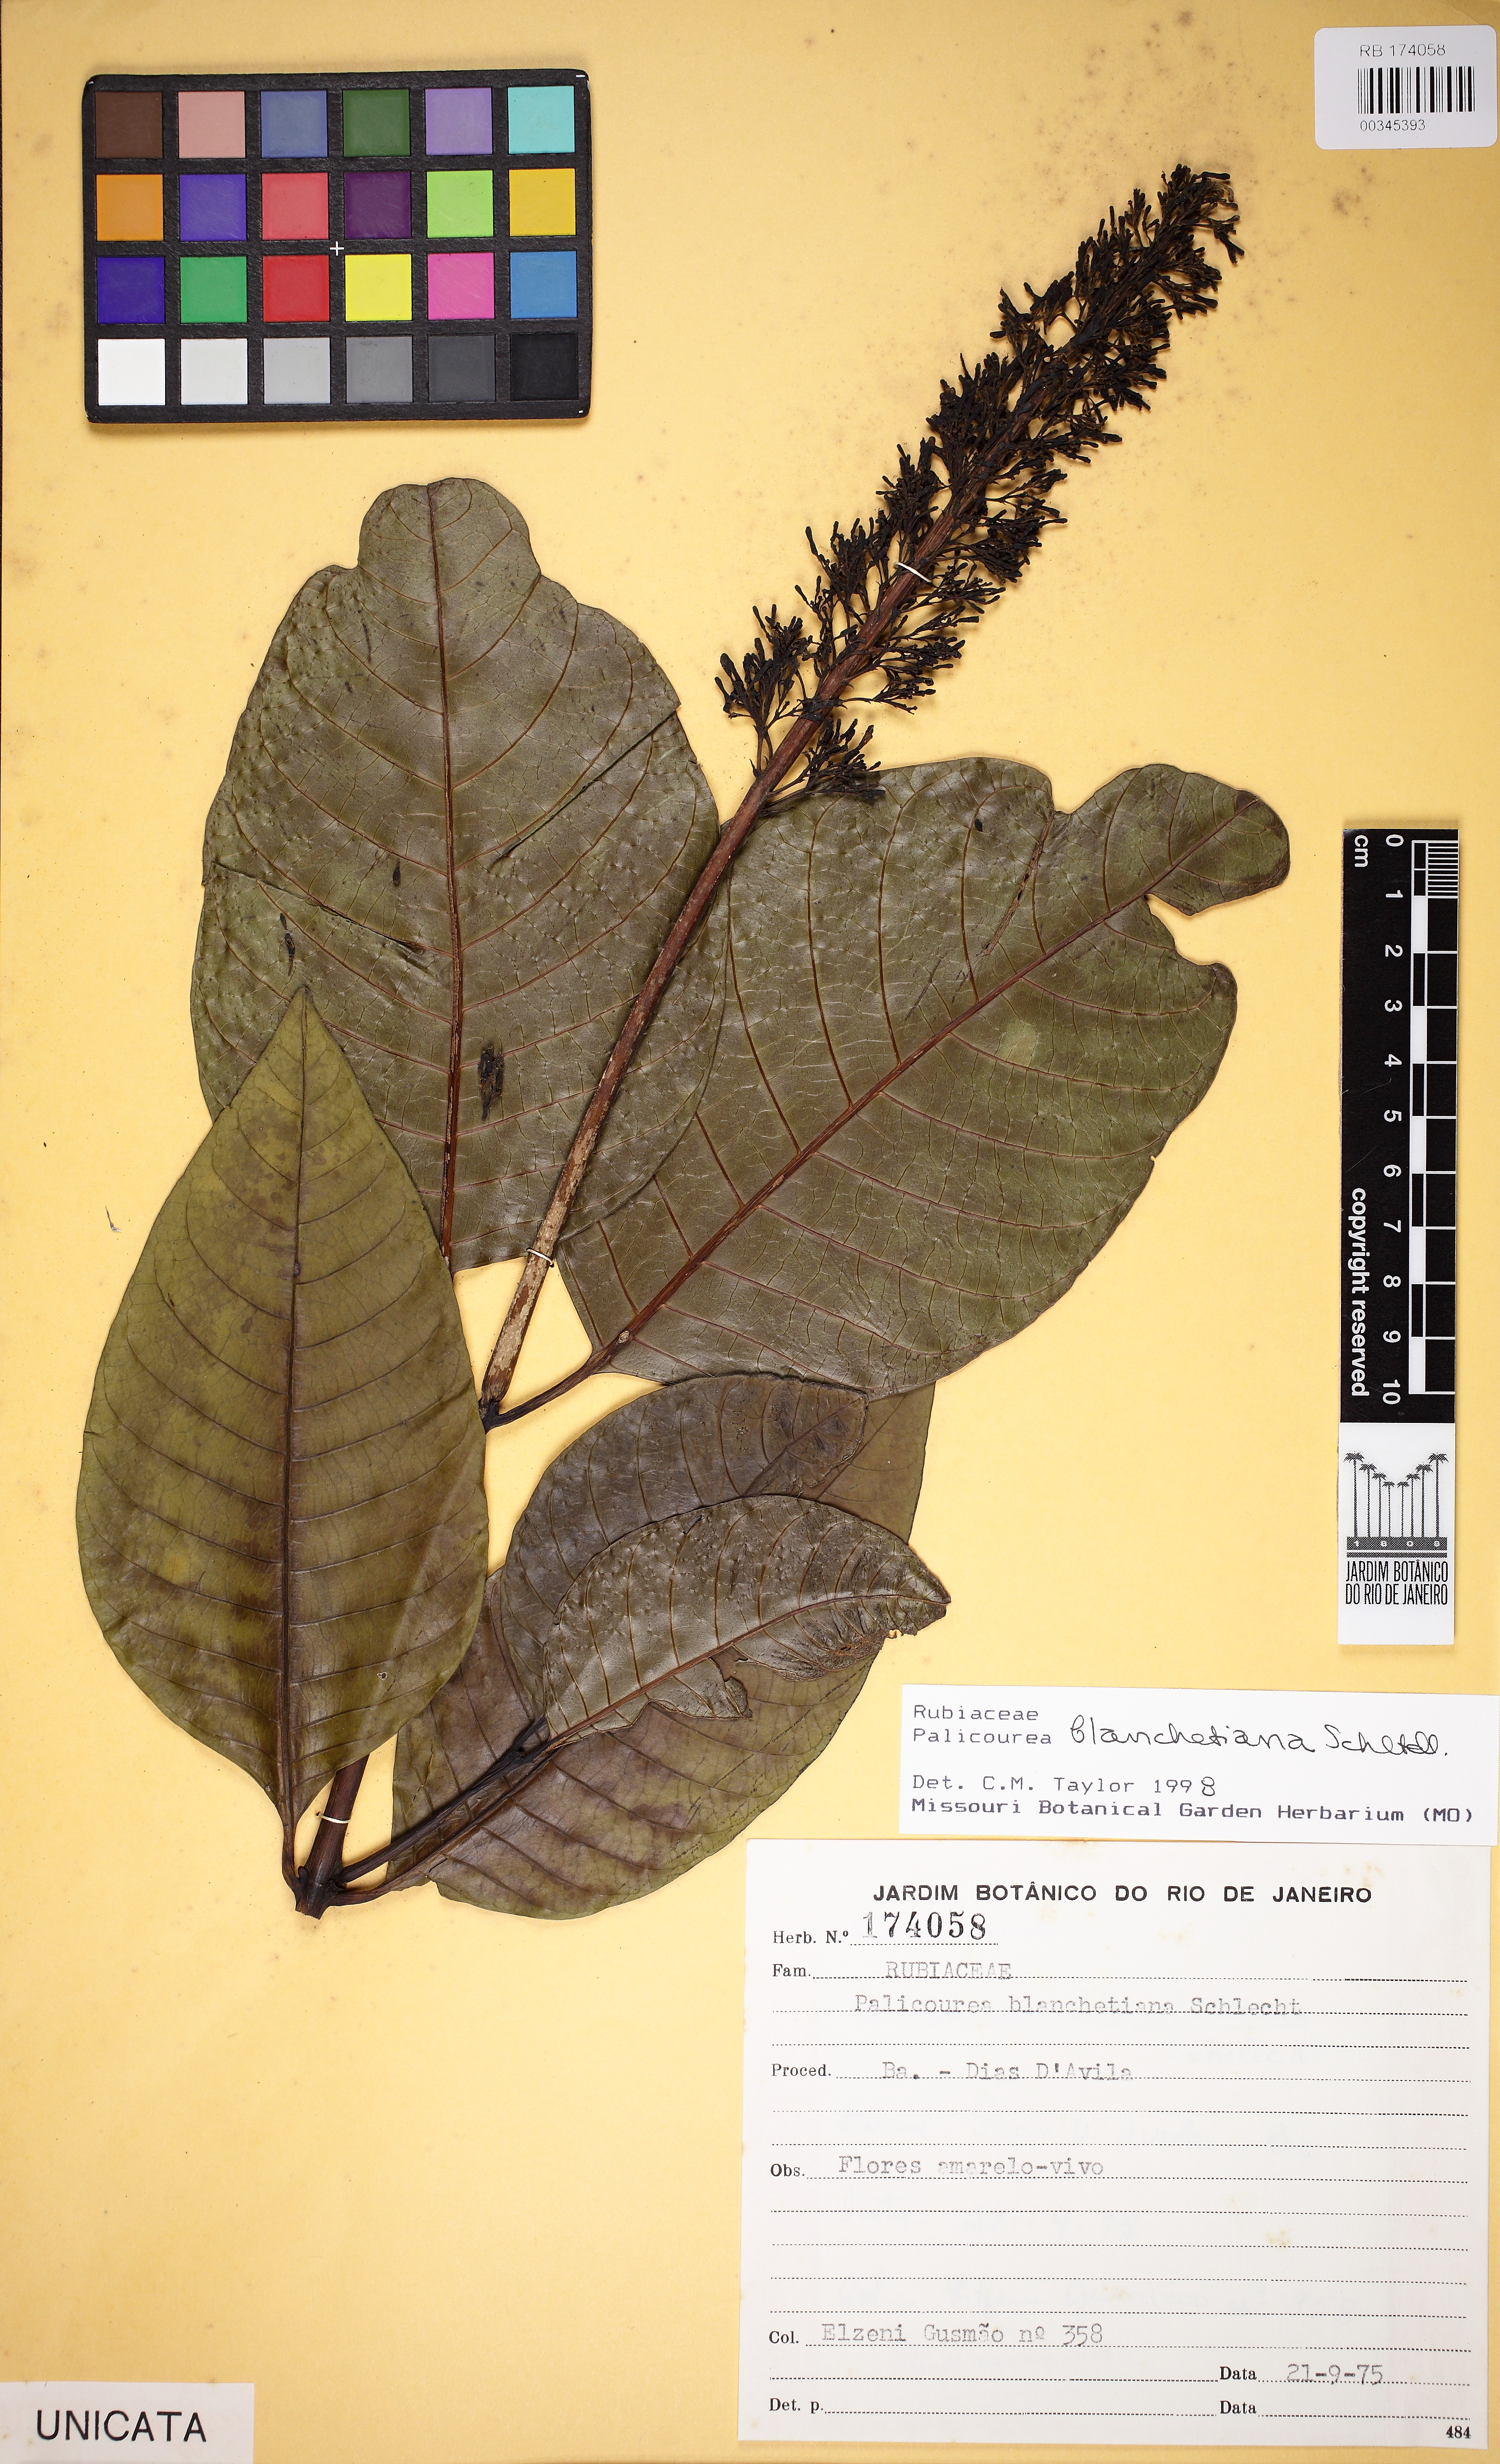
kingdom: Plantae
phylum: Tracheophyta
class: Magnoliopsida
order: Gentianales
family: Rubiaceae
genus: Palicourea
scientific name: Palicourea blanchetiana
